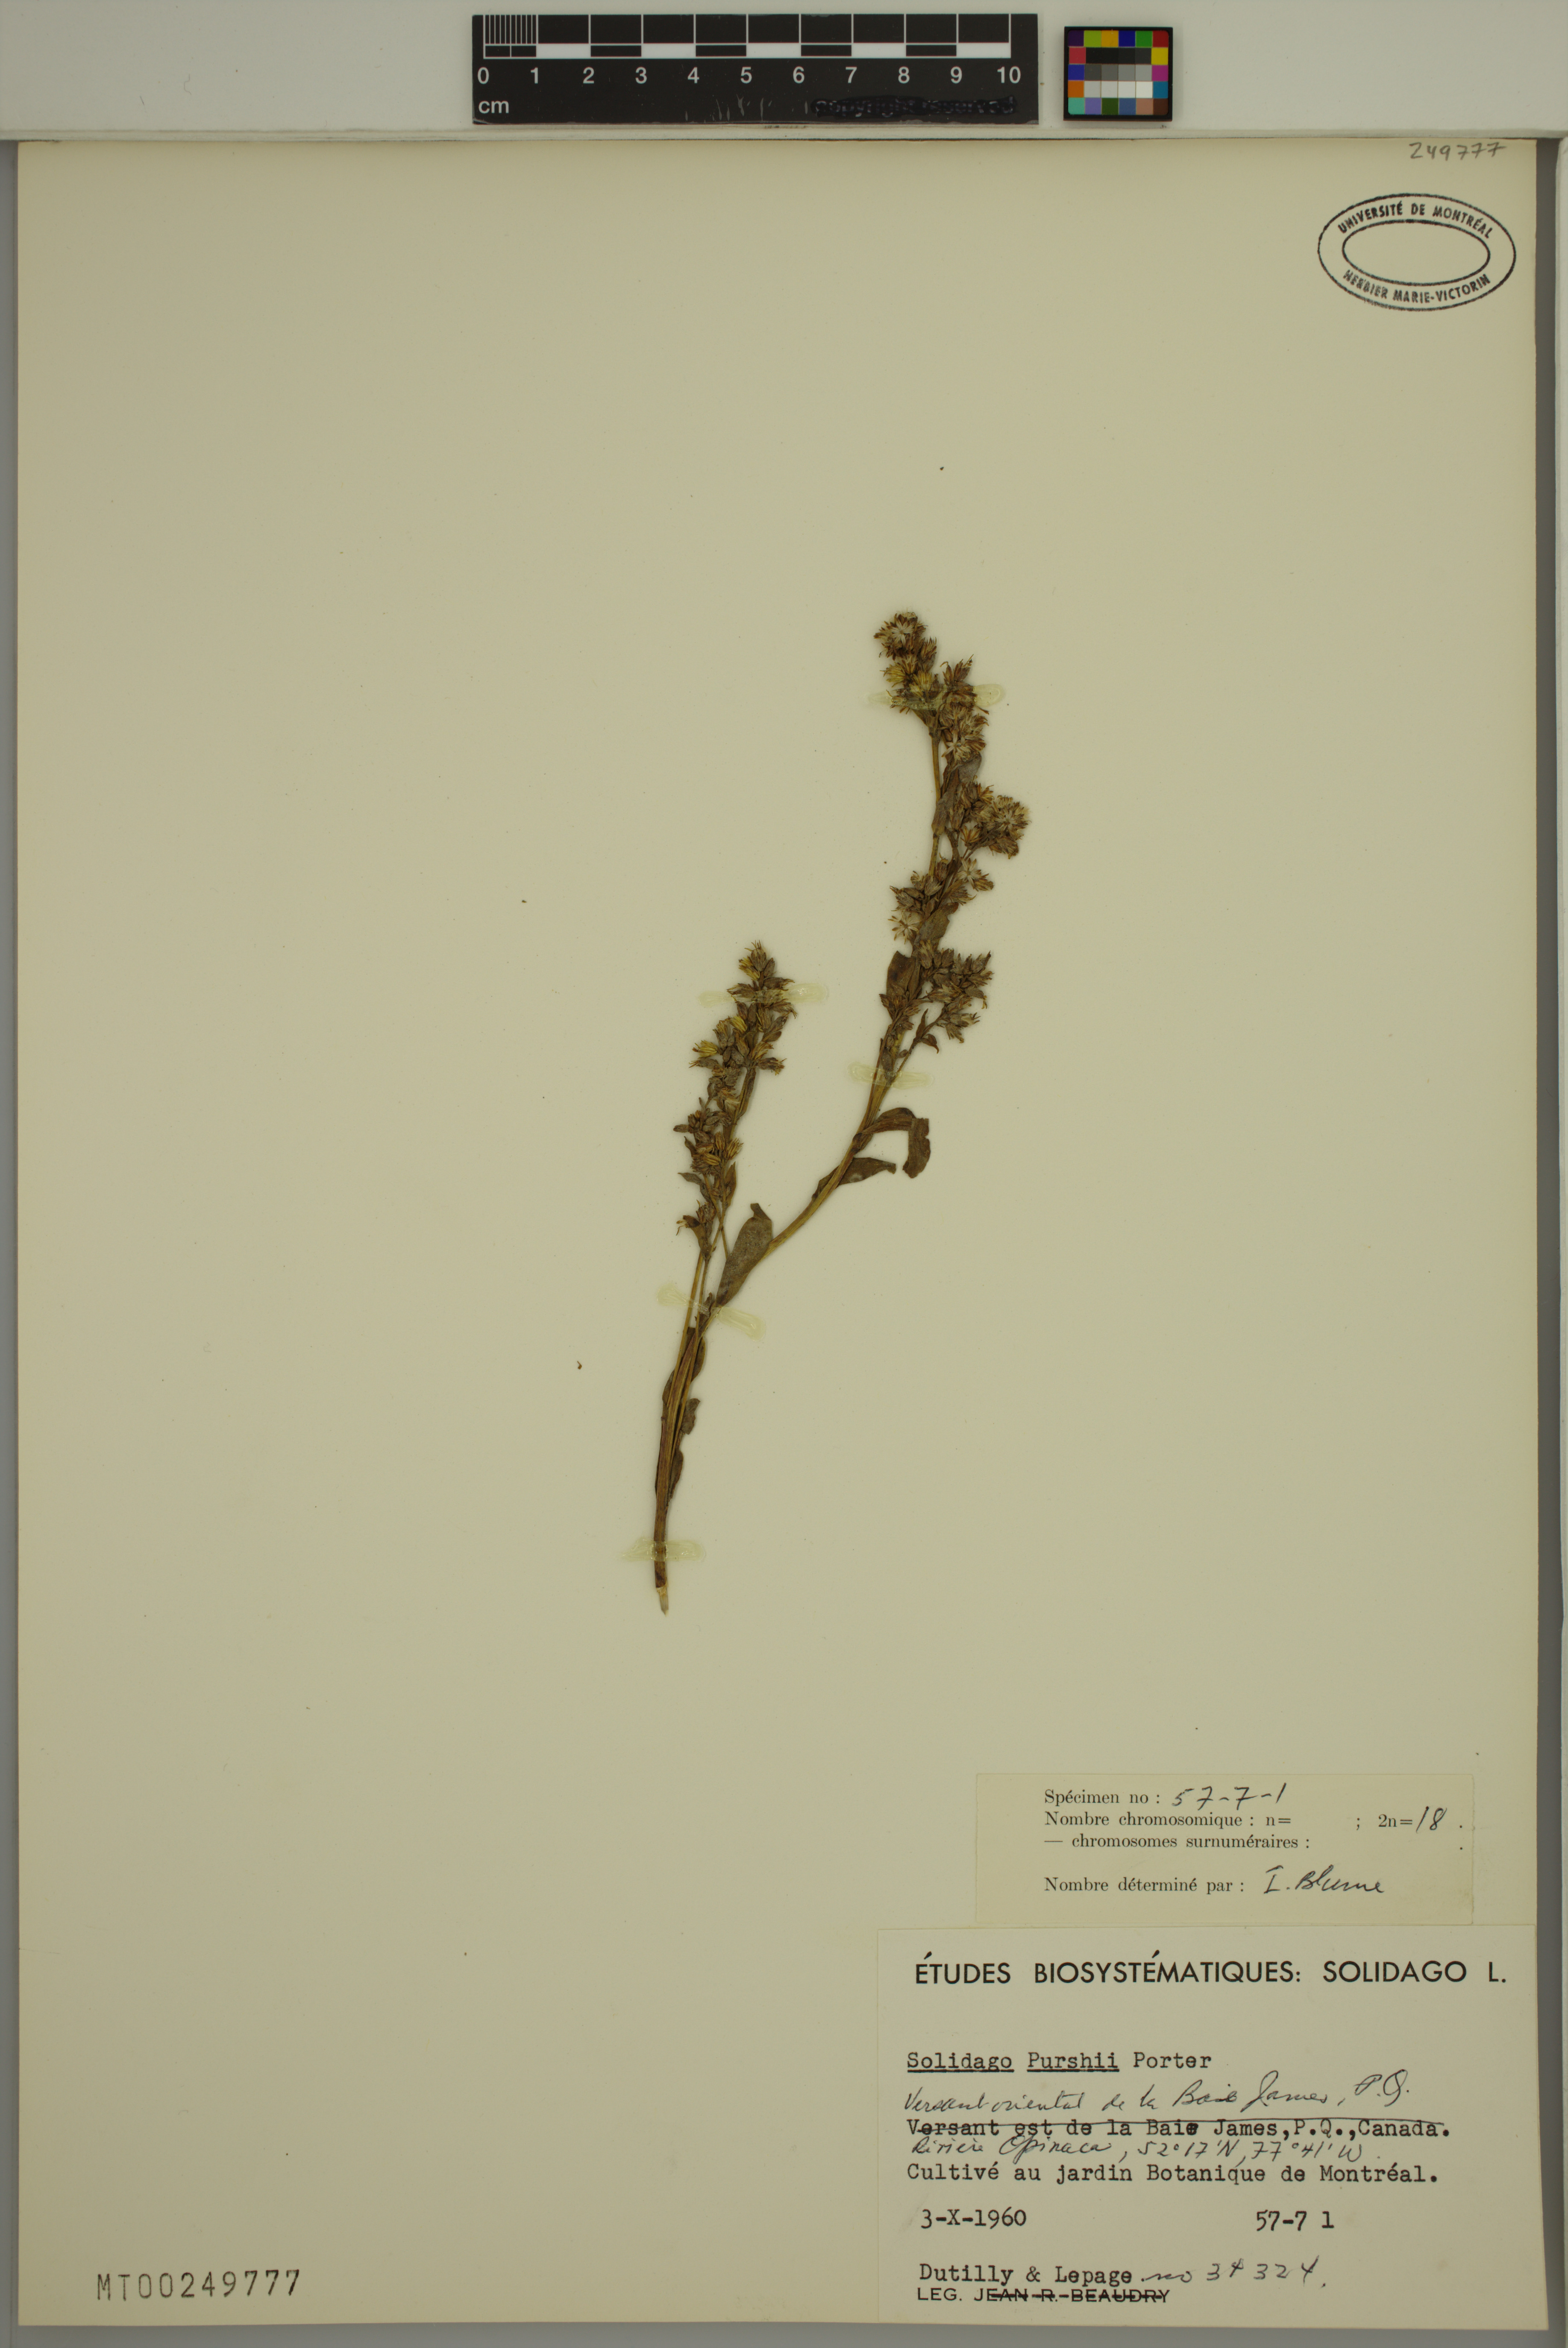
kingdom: Plantae
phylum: Tracheophyta
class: Magnoliopsida
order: Asterales
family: Asteraceae
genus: Solidago
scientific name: Solidago uliginosa
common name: Bog goldenrod
